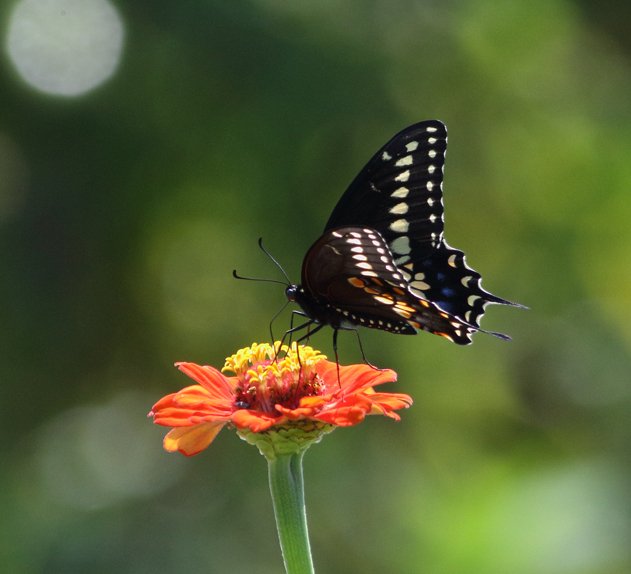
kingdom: Animalia
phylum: Arthropoda
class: Insecta
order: Lepidoptera
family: Papilionidae
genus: Papilio
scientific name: Papilio polyxenes
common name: Black Swallowtail
